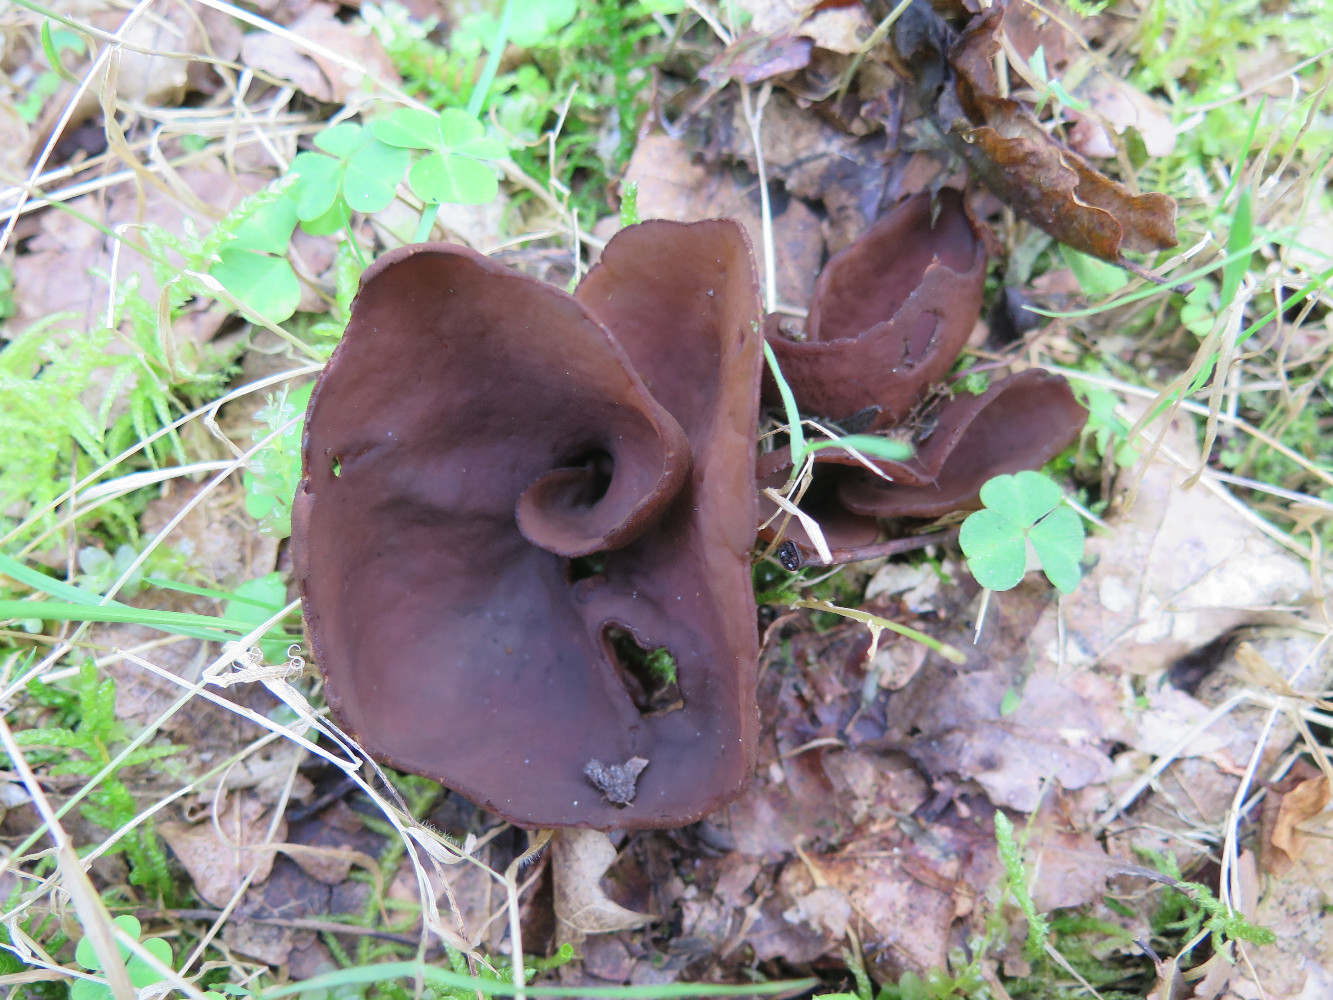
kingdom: Fungi
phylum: Ascomycota
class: Pezizomycetes
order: Pezizales
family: Otideaceae
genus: Otidea
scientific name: Otidea bufonia
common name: brun ørebæger
